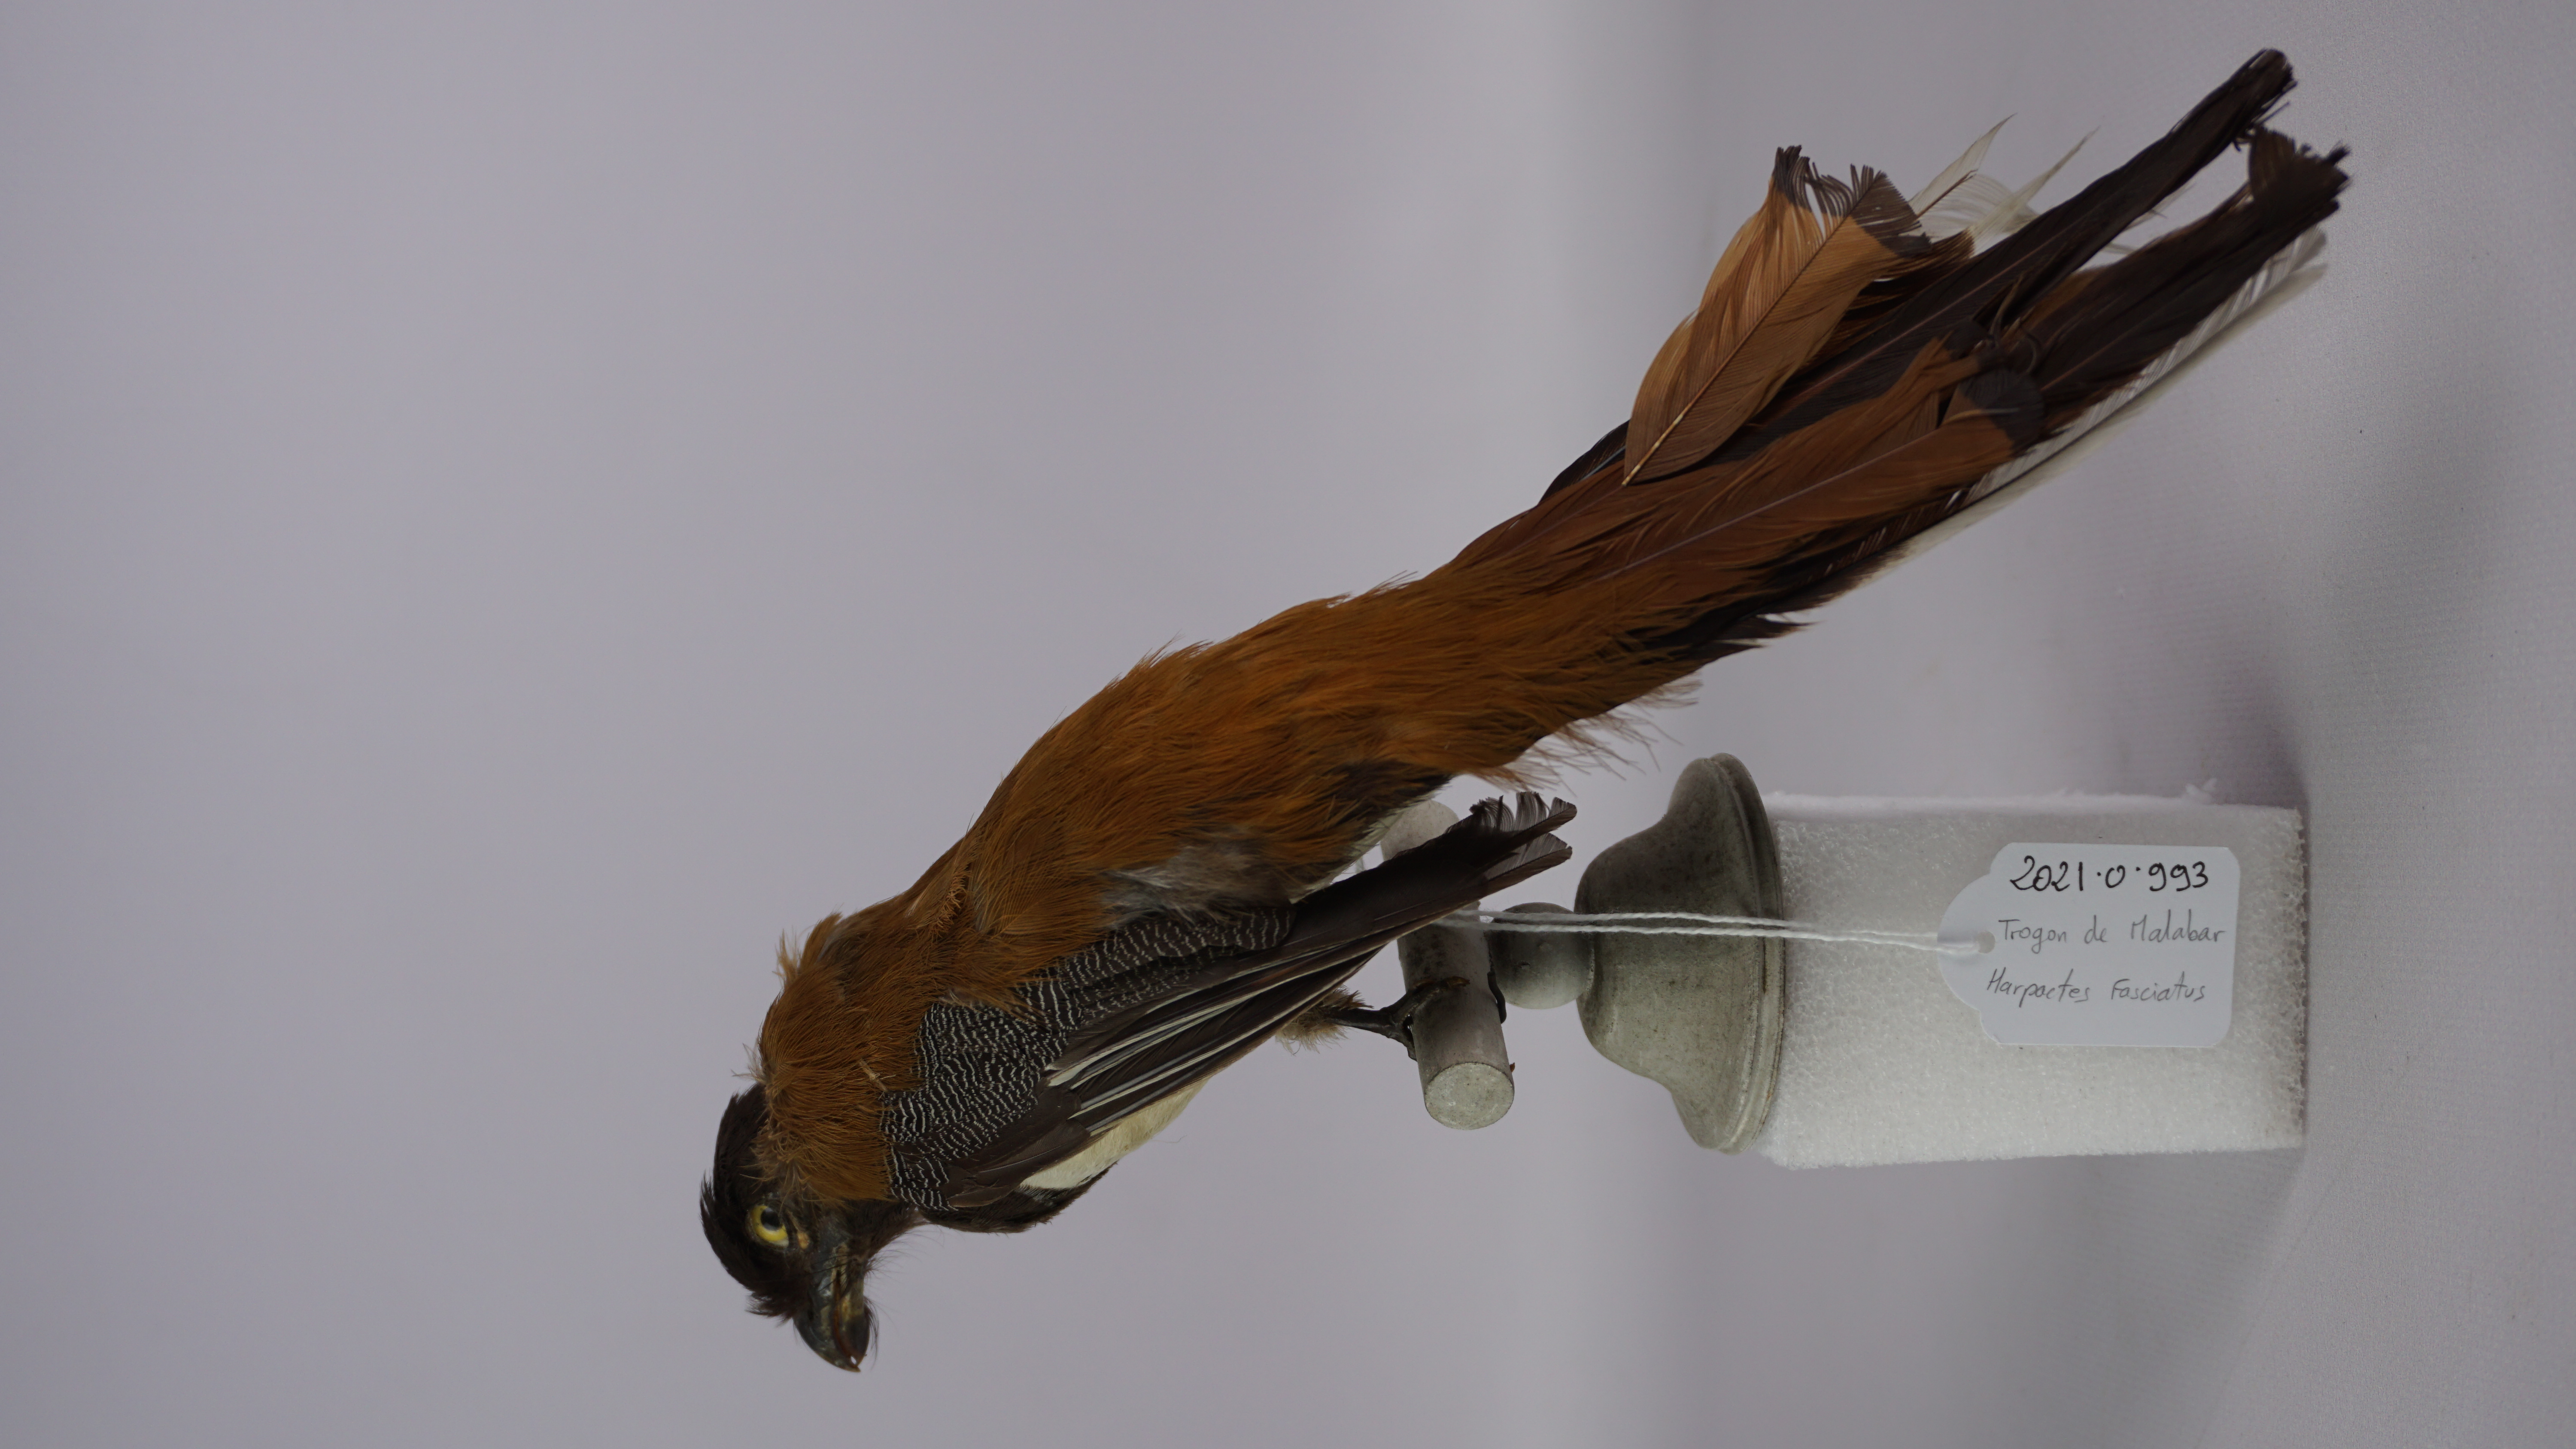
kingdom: Animalia
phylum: Chordata
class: Aves
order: Trogoniformes
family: Trogonidae
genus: Harpactes
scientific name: Harpactes fasciatus
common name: Malabar trogon
